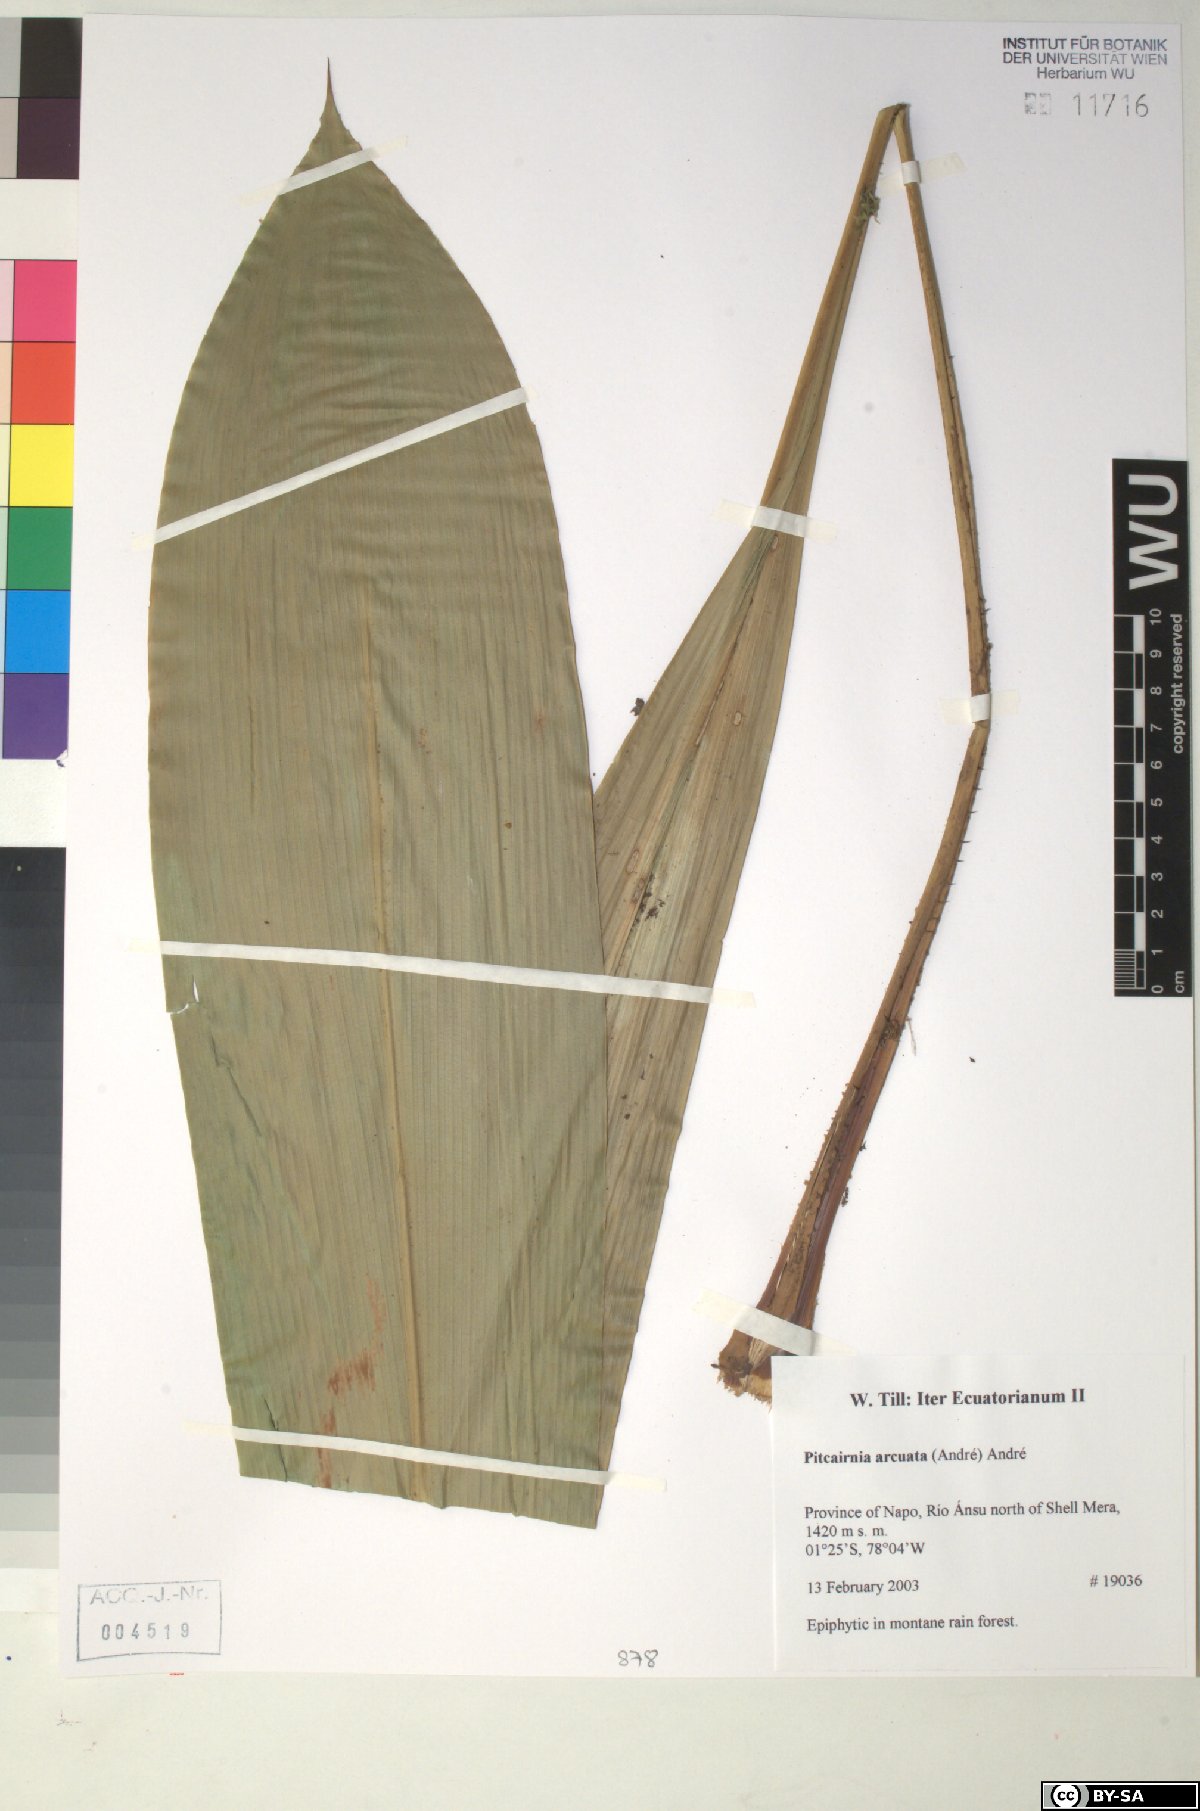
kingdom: Plantae
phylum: Tracheophyta
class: Liliopsida
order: Poales
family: Bromeliaceae
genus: Pitcairnia
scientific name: Pitcairnia arcuata
